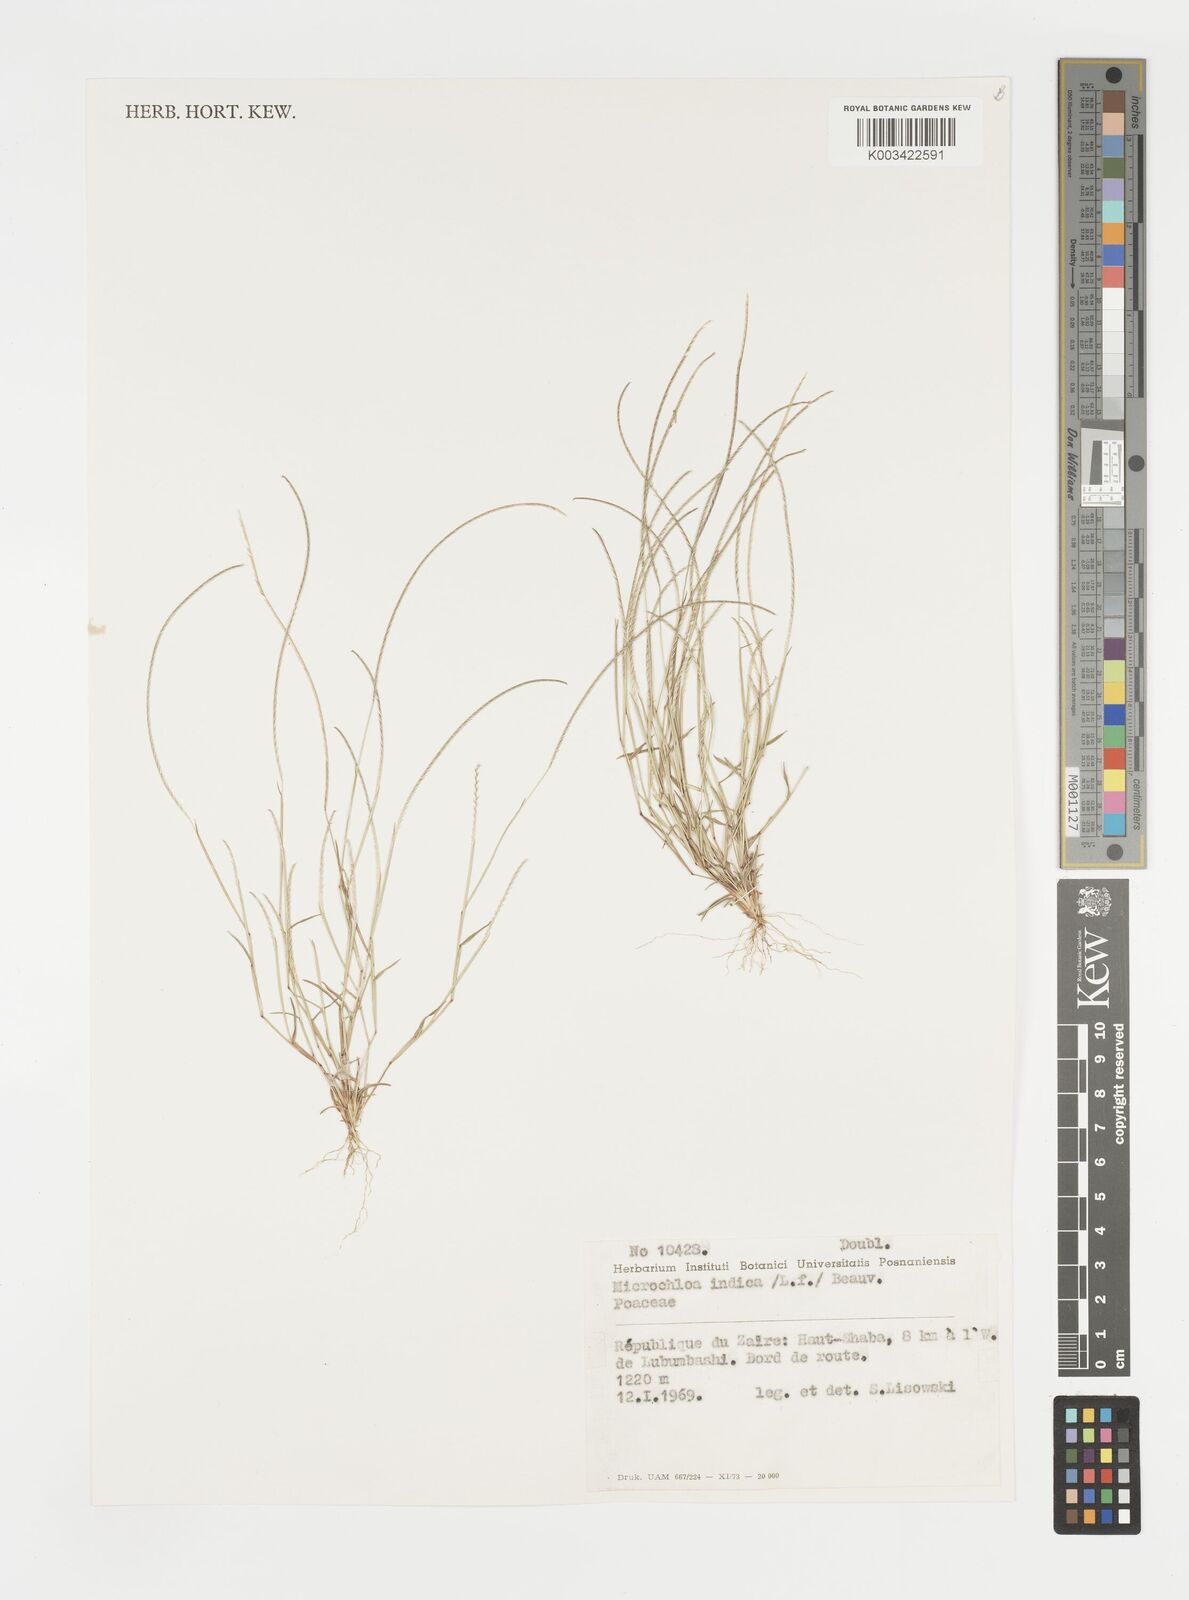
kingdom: Plantae
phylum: Tracheophyta
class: Liliopsida
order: Poales
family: Poaceae
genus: Microchloa
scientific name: Microchloa indica
